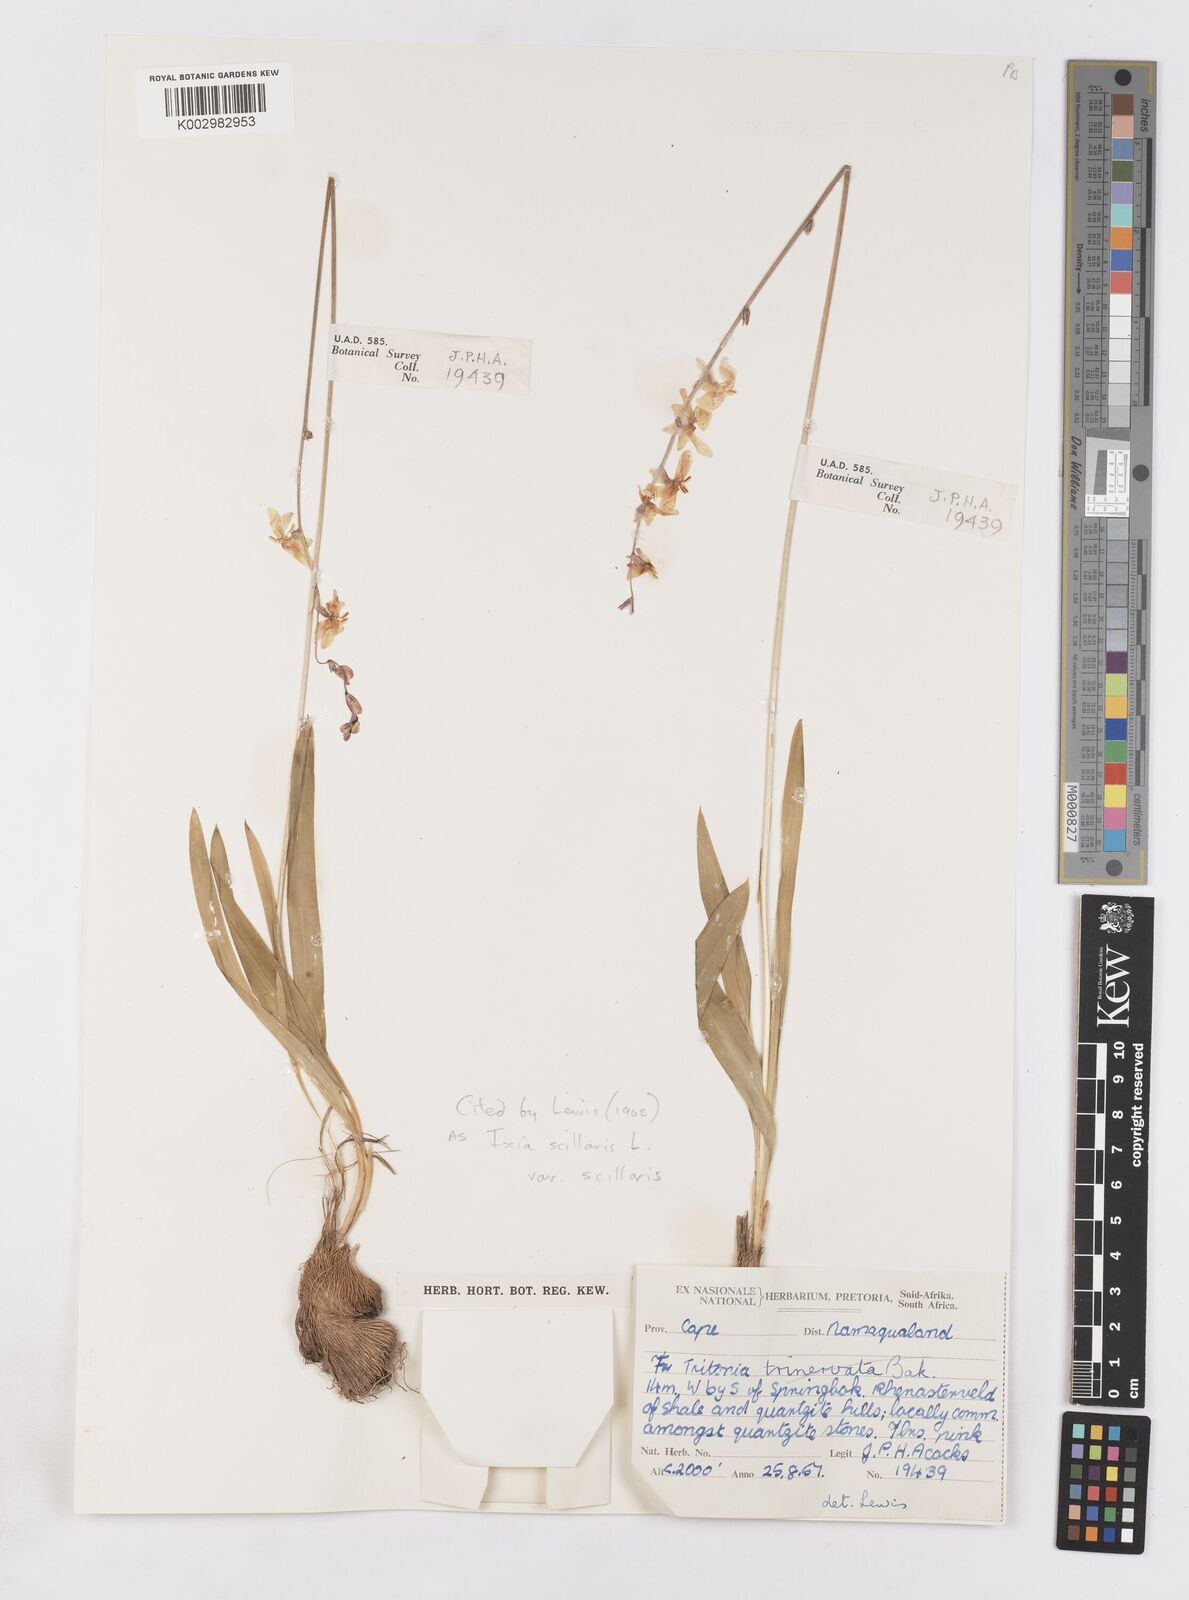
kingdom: Plantae
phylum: Tracheophyta
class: Liliopsida
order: Asparagales
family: Iridaceae
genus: Ixia
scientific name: Ixia scillaris
